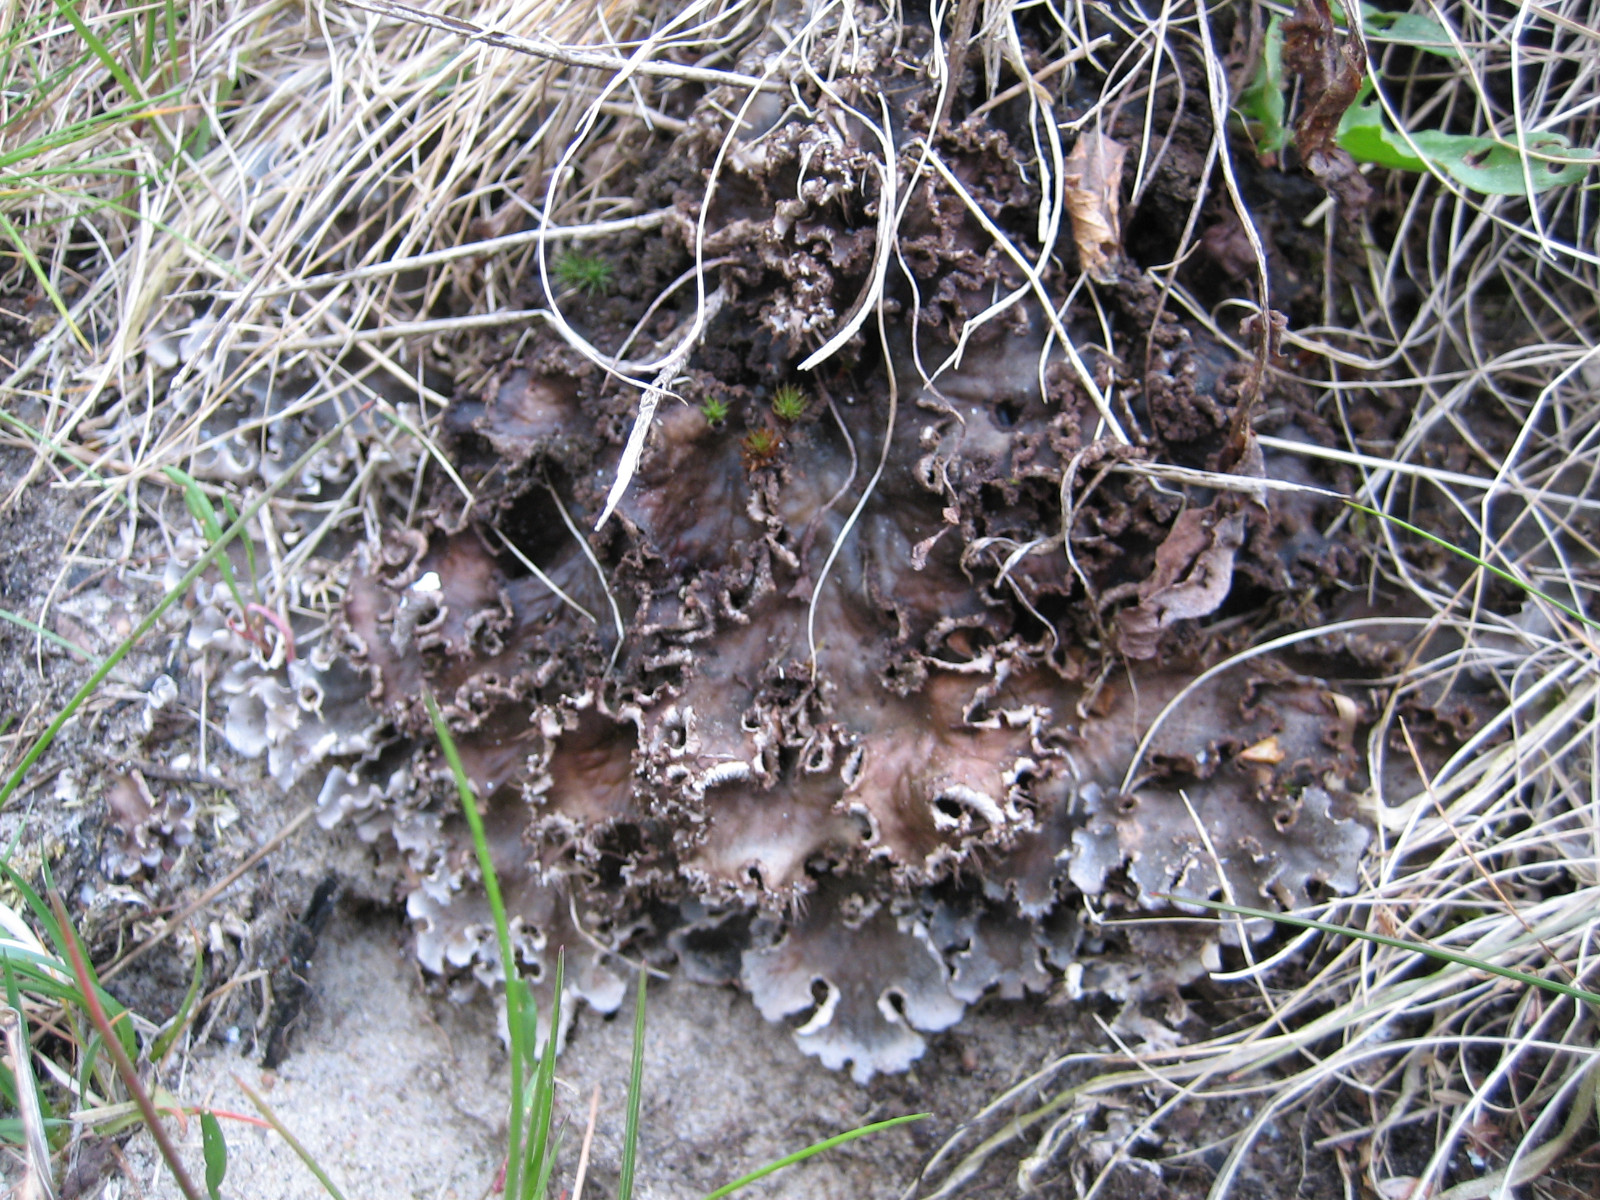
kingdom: Fungi
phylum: Ascomycota
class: Lecanoromycetes
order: Peltigerales
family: Peltigeraceae
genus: Peltigera
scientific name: Peltigera praetextata
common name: kruset skjoldlav
